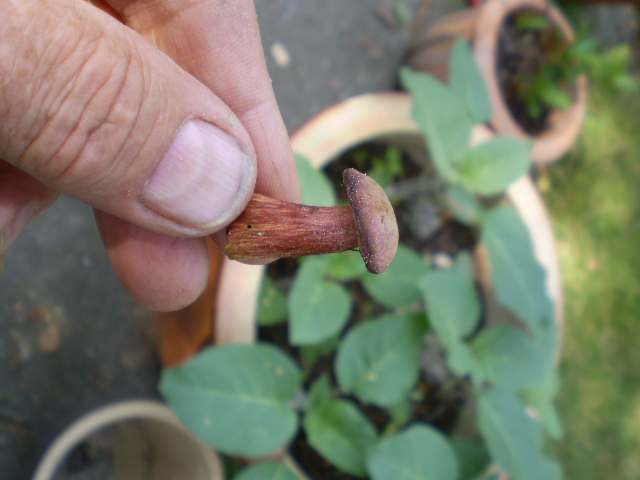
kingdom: Fungi
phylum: Basidiomycota
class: Agaricomycetes
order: Boletales
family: Boletaceae
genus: Hortiboletus
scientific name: Hortiboletus rubellus
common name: blodrød rørhat
